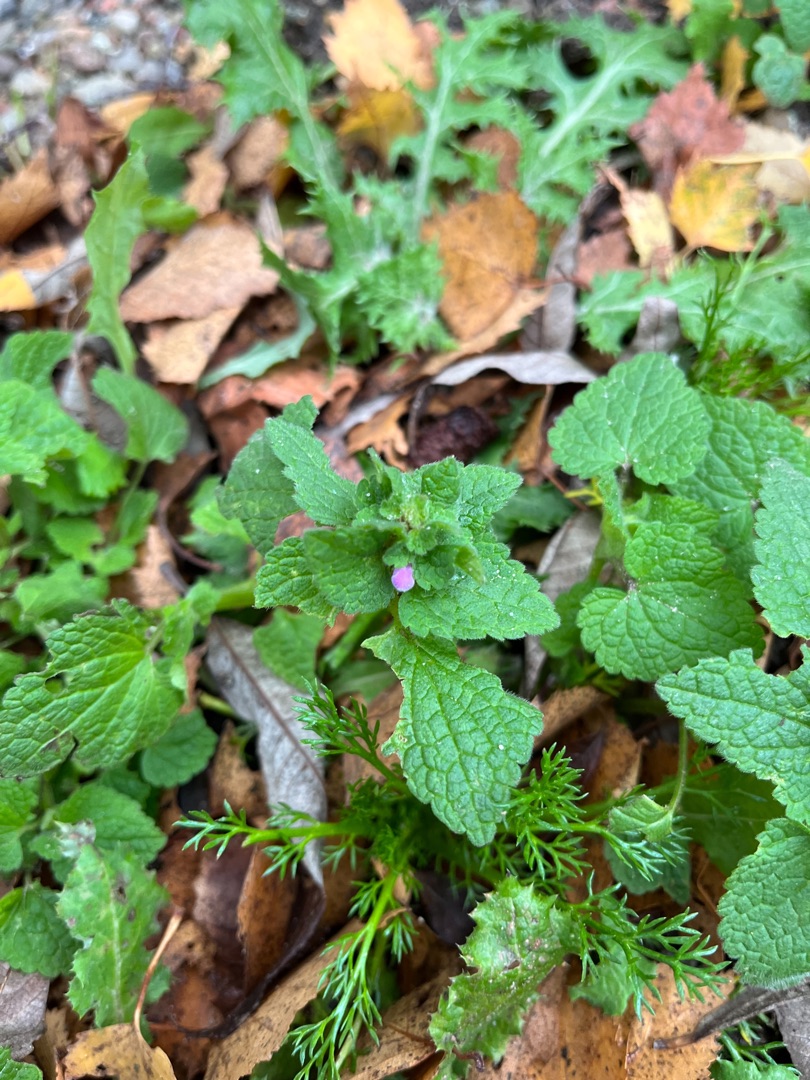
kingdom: Plantae
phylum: Tracheophyta
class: Magnoliopsida
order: Lamiales
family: Lamiaceae
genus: Lamium
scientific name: Lamium purpureum
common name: Rød tvetand
